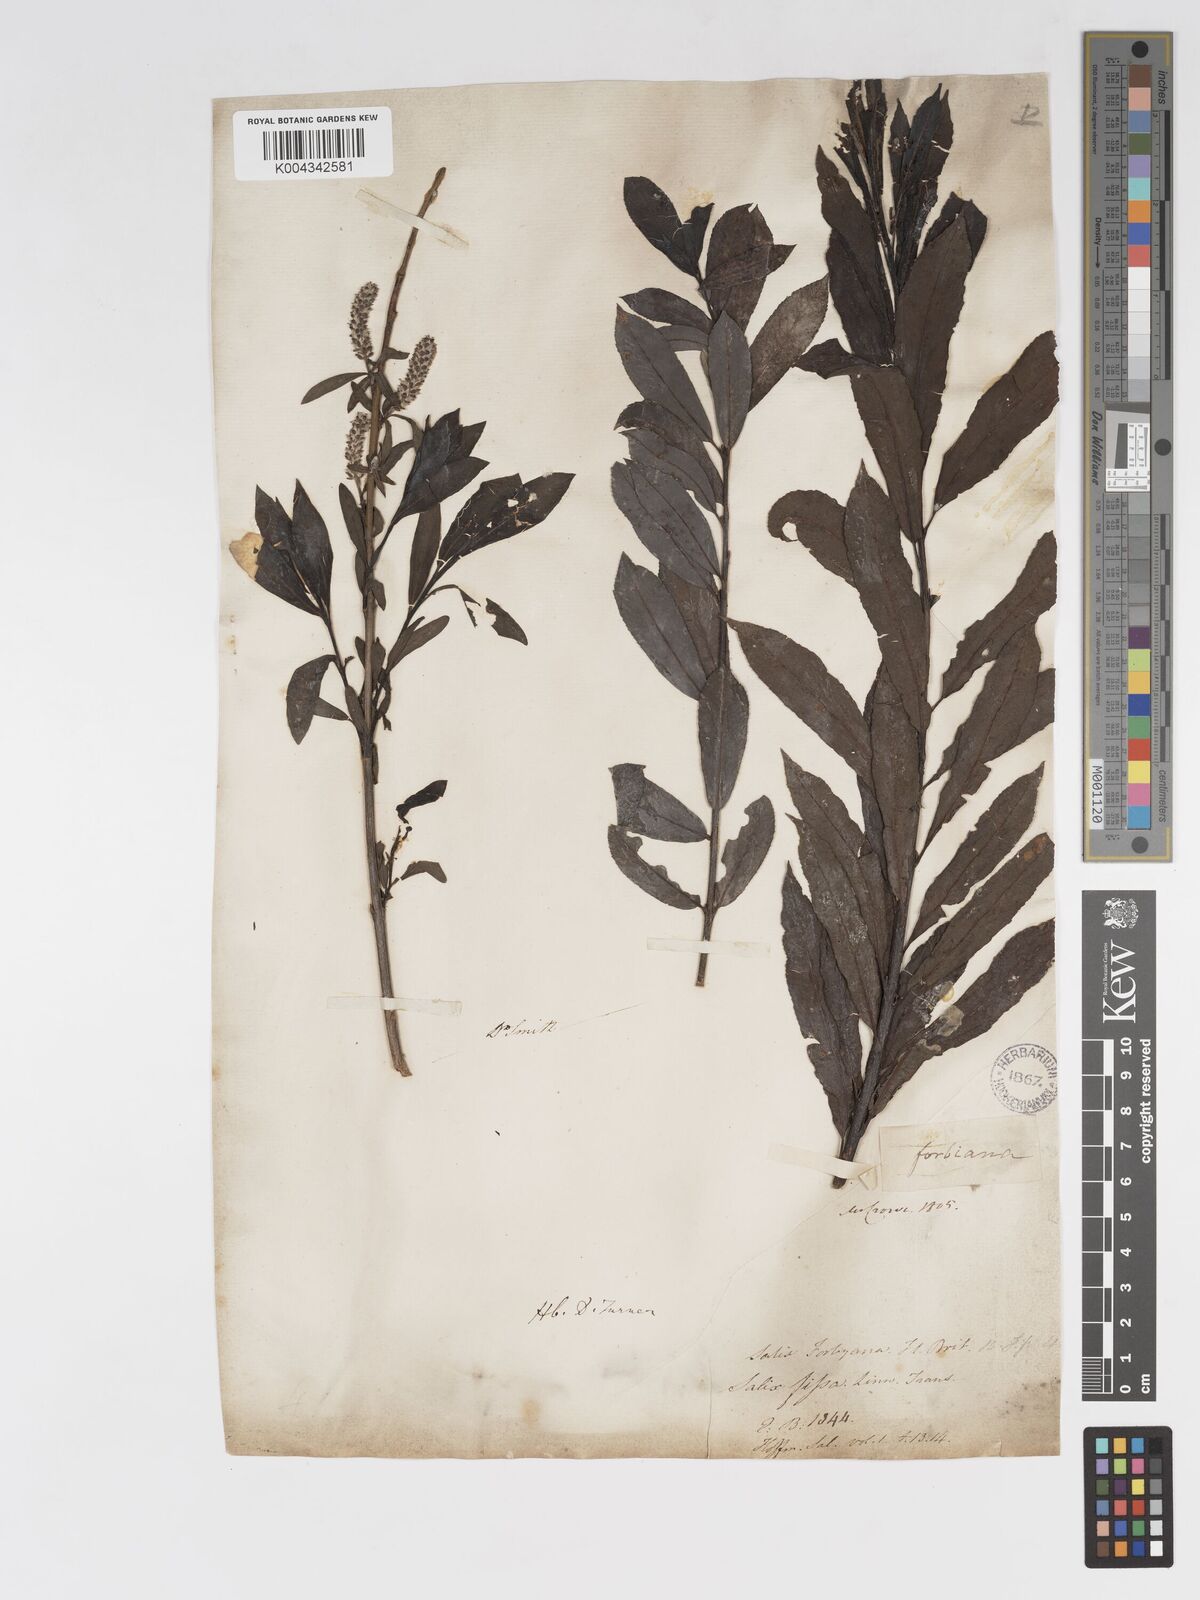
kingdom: Plantae
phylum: Tracheophyta
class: Magnoliopsida
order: Malpighiales
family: Salicaceae
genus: Salix
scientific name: Salix cinerea
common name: Common sallow
